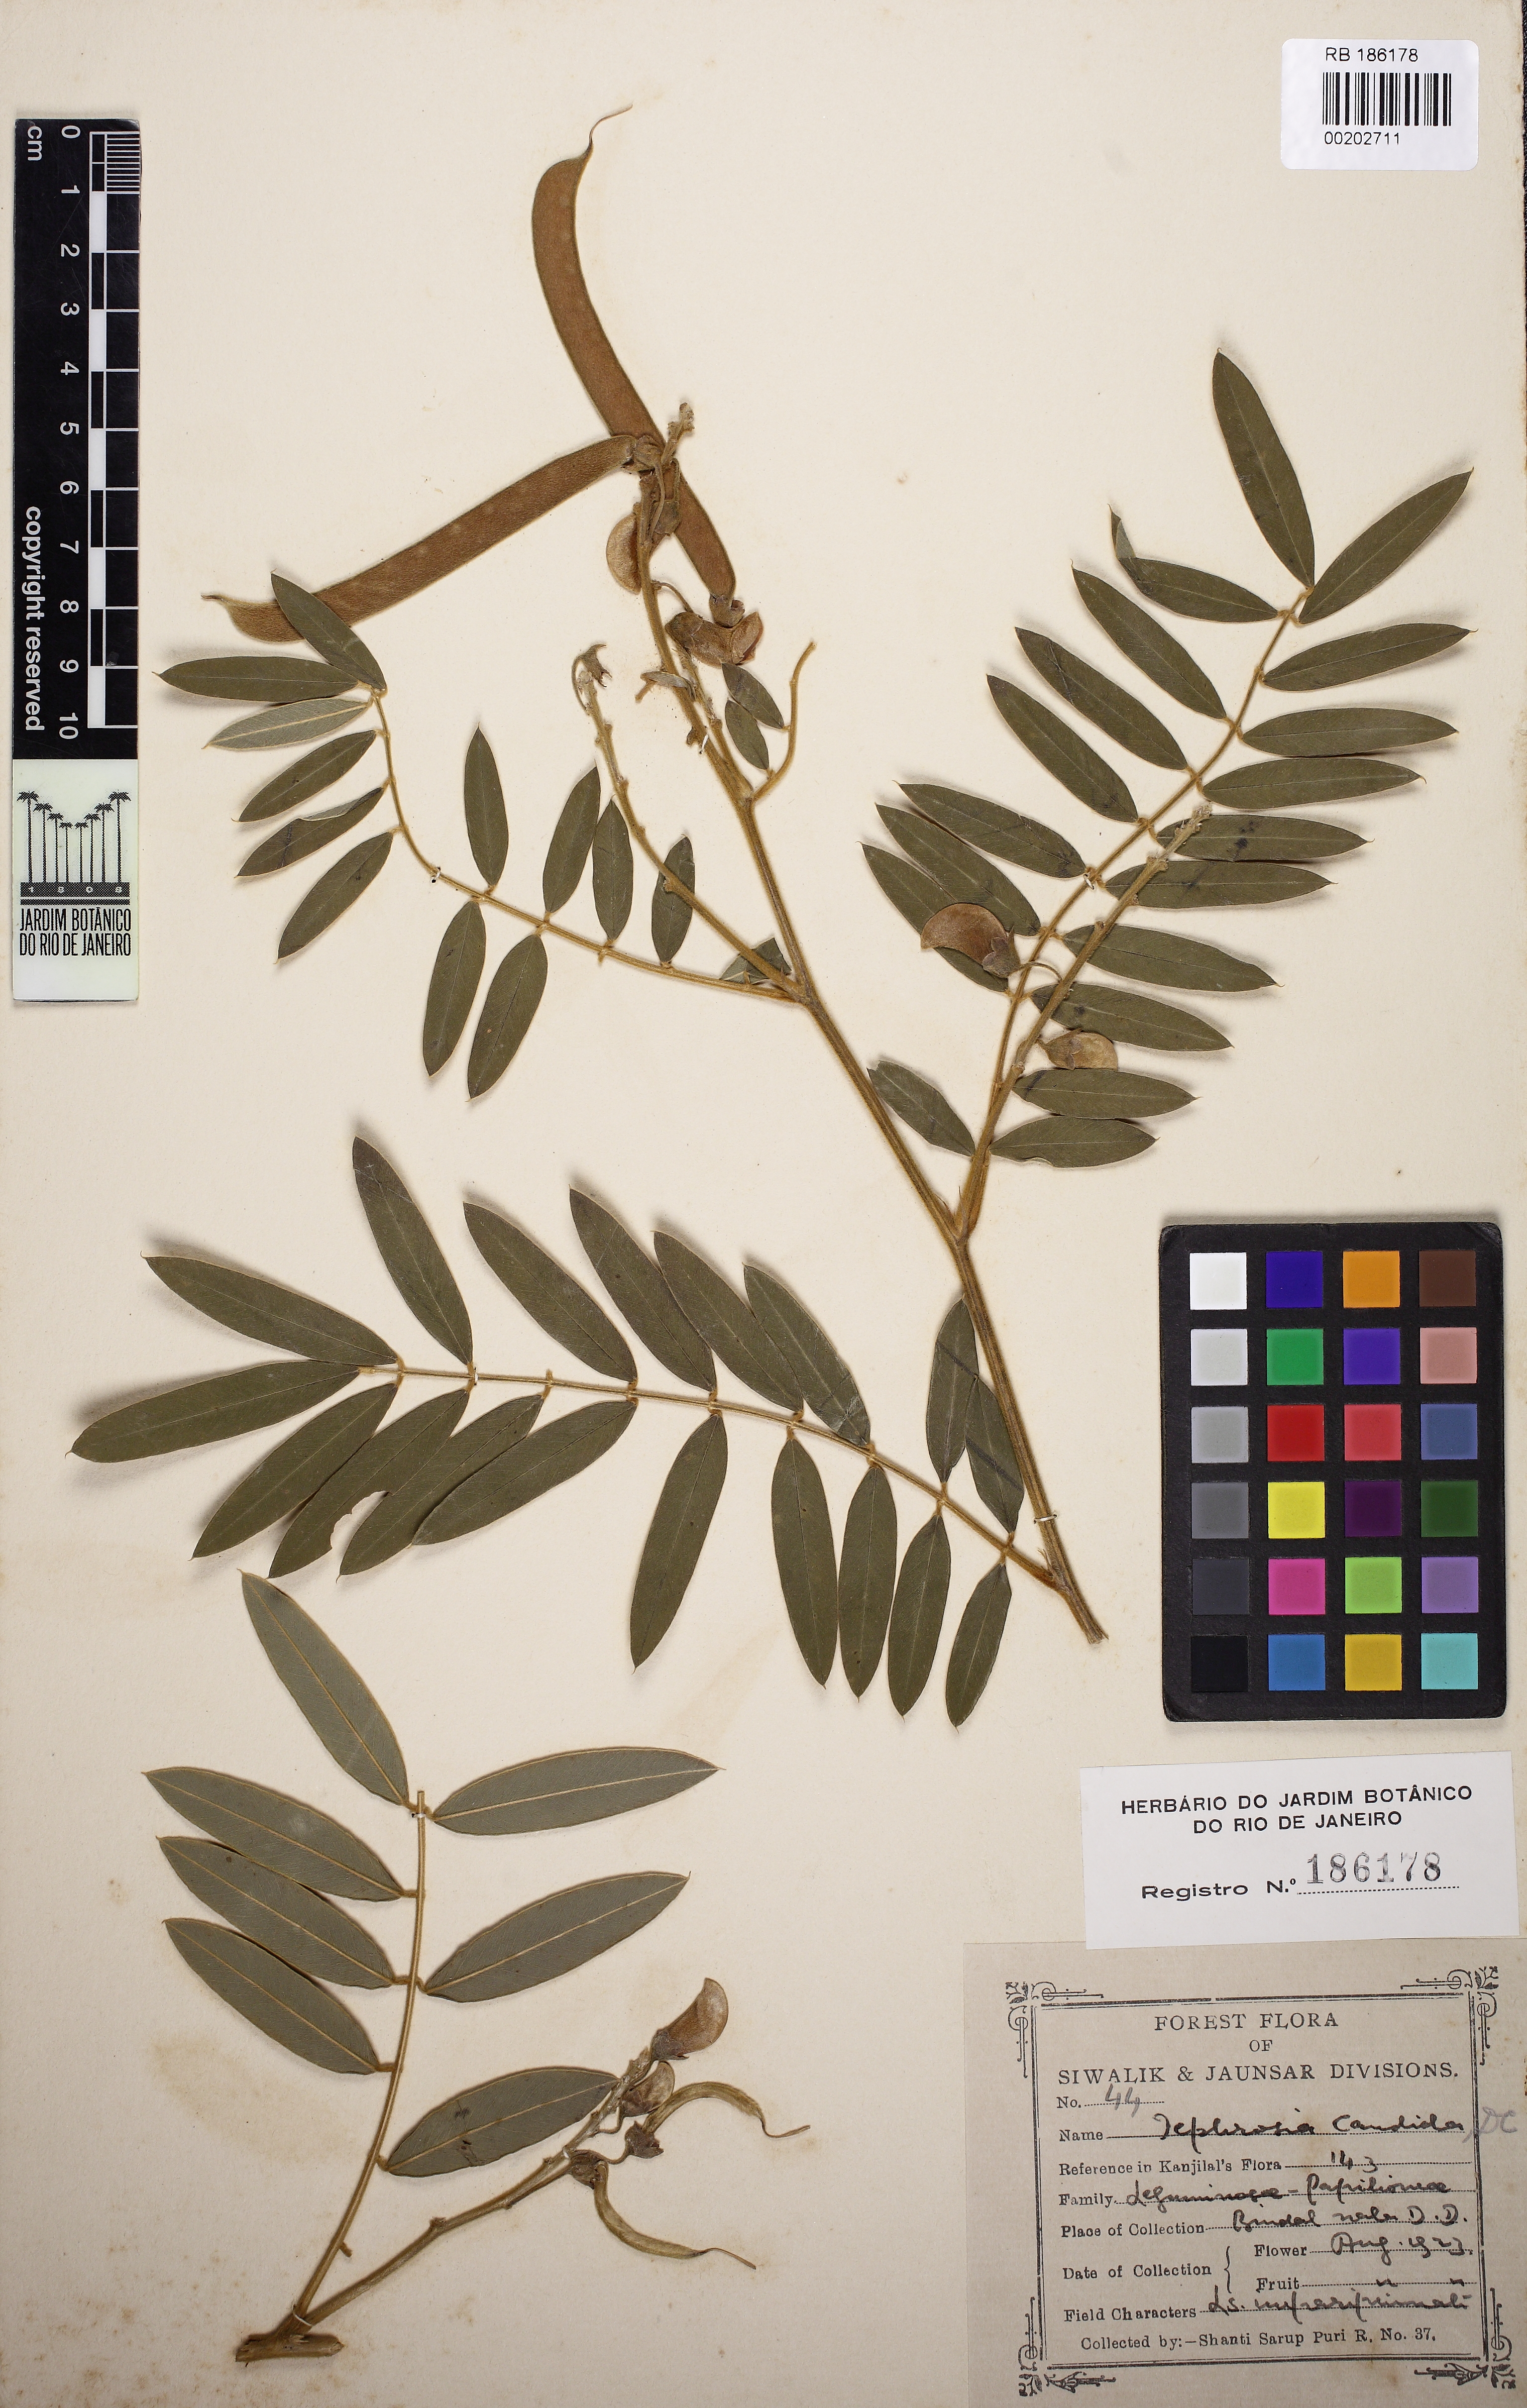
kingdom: Plantae
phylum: Tracheophyta
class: Magnoliopsida
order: Fabales
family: Fabaceae
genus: Tephrosia
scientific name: Tephrosia candida
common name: White tephrosia
